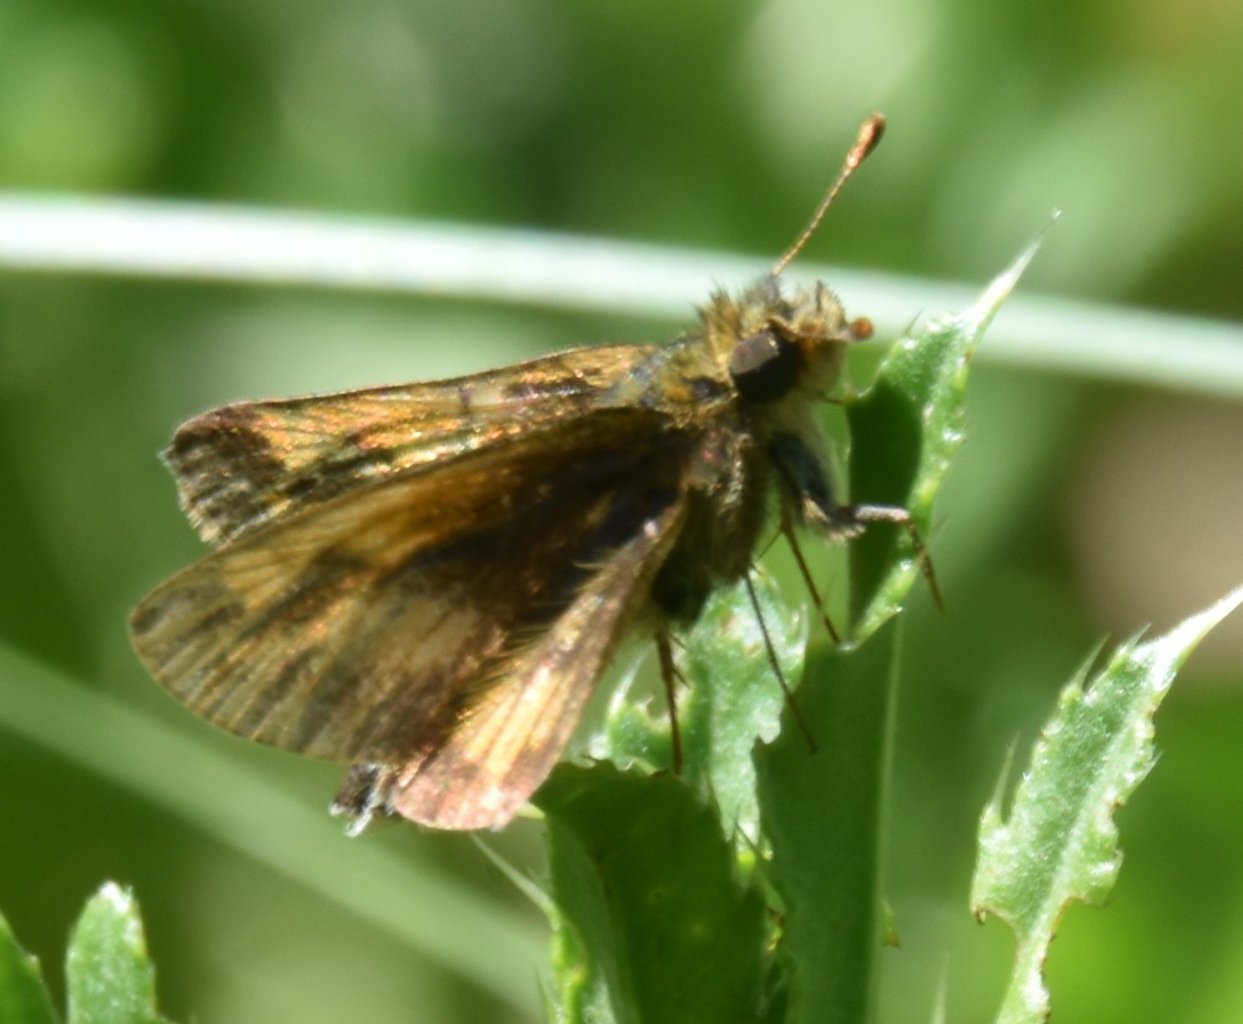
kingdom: Animalia
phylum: Arthropoda
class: Insecta
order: Lepidoptera
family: Hesperiidae
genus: Polites
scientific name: Polites coras
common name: Peck's Skipper
